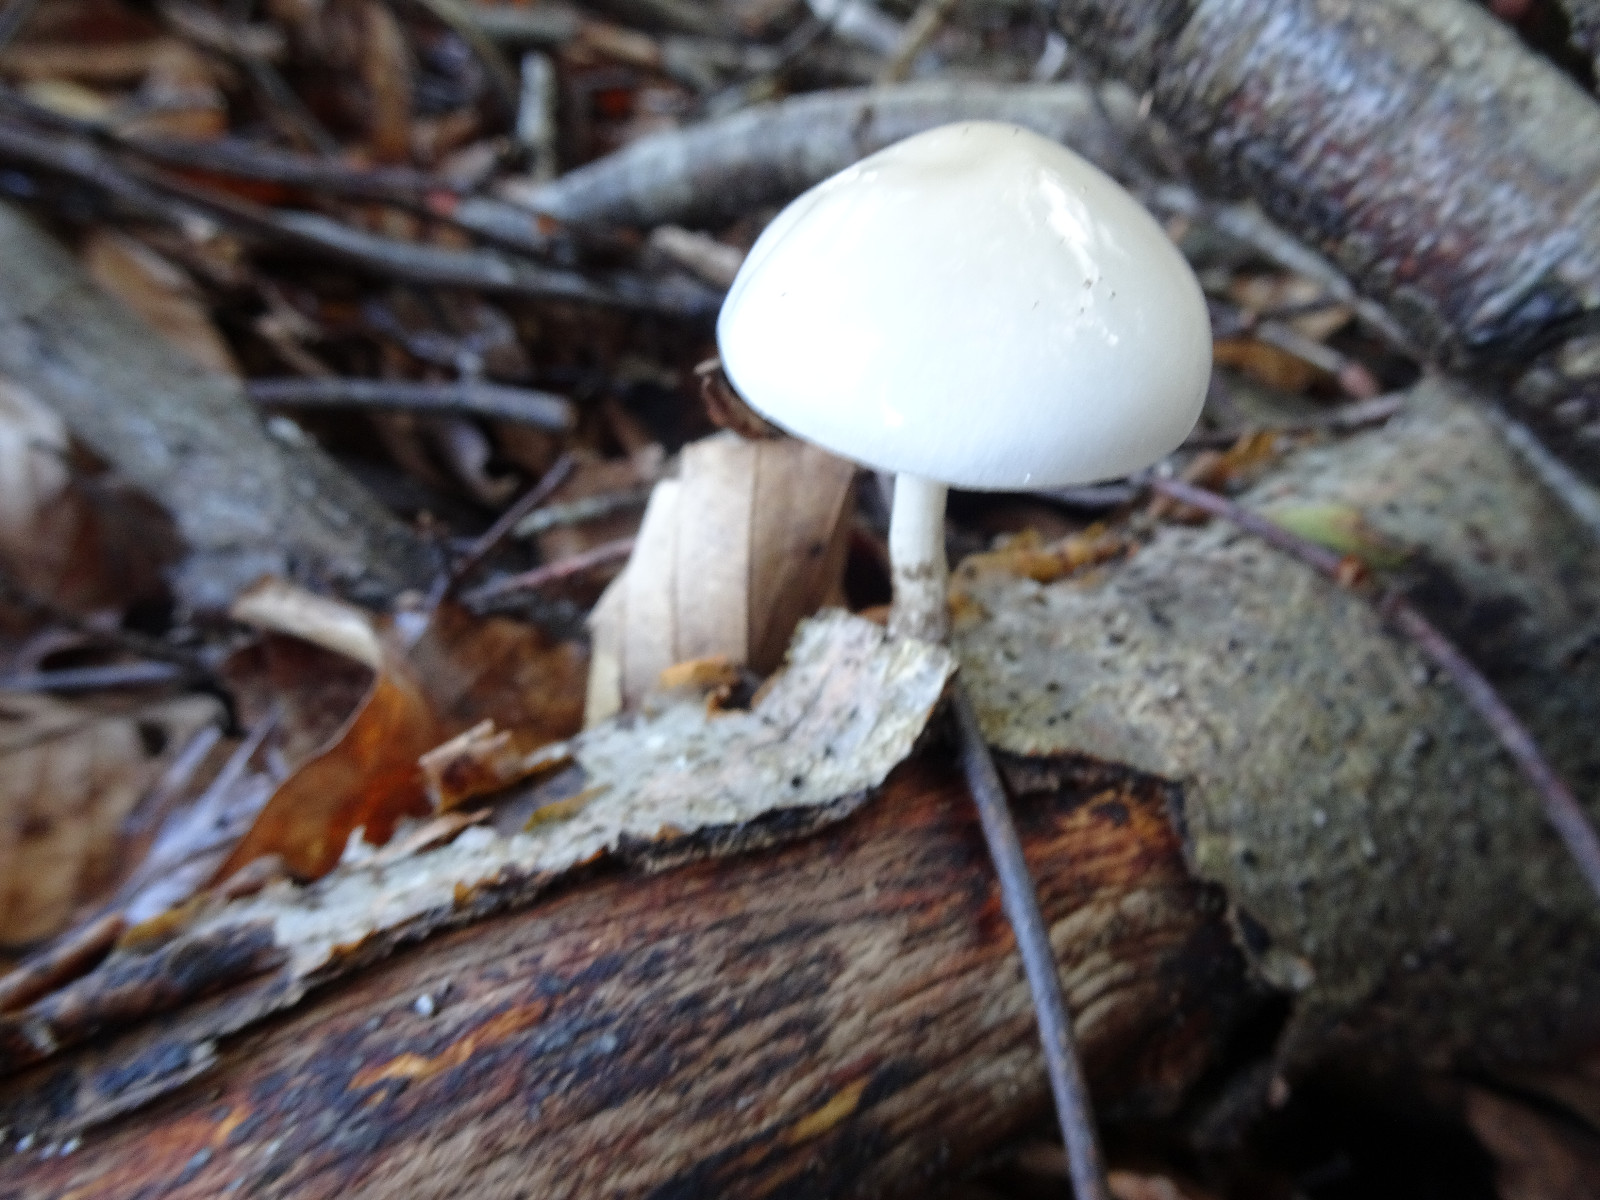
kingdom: Fungi
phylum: Basidiomycota
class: Agaricomycetes
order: Agaricales
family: Physalacriaceae
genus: Mucidula
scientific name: Mucidula mucida
